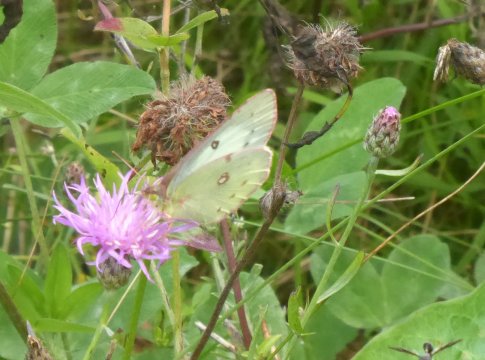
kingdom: Animalia
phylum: Arthropoda
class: Insecta
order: Lepidoptera
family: Pieridae
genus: Colias
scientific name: Colias philodice
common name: Clouded Sulphur
